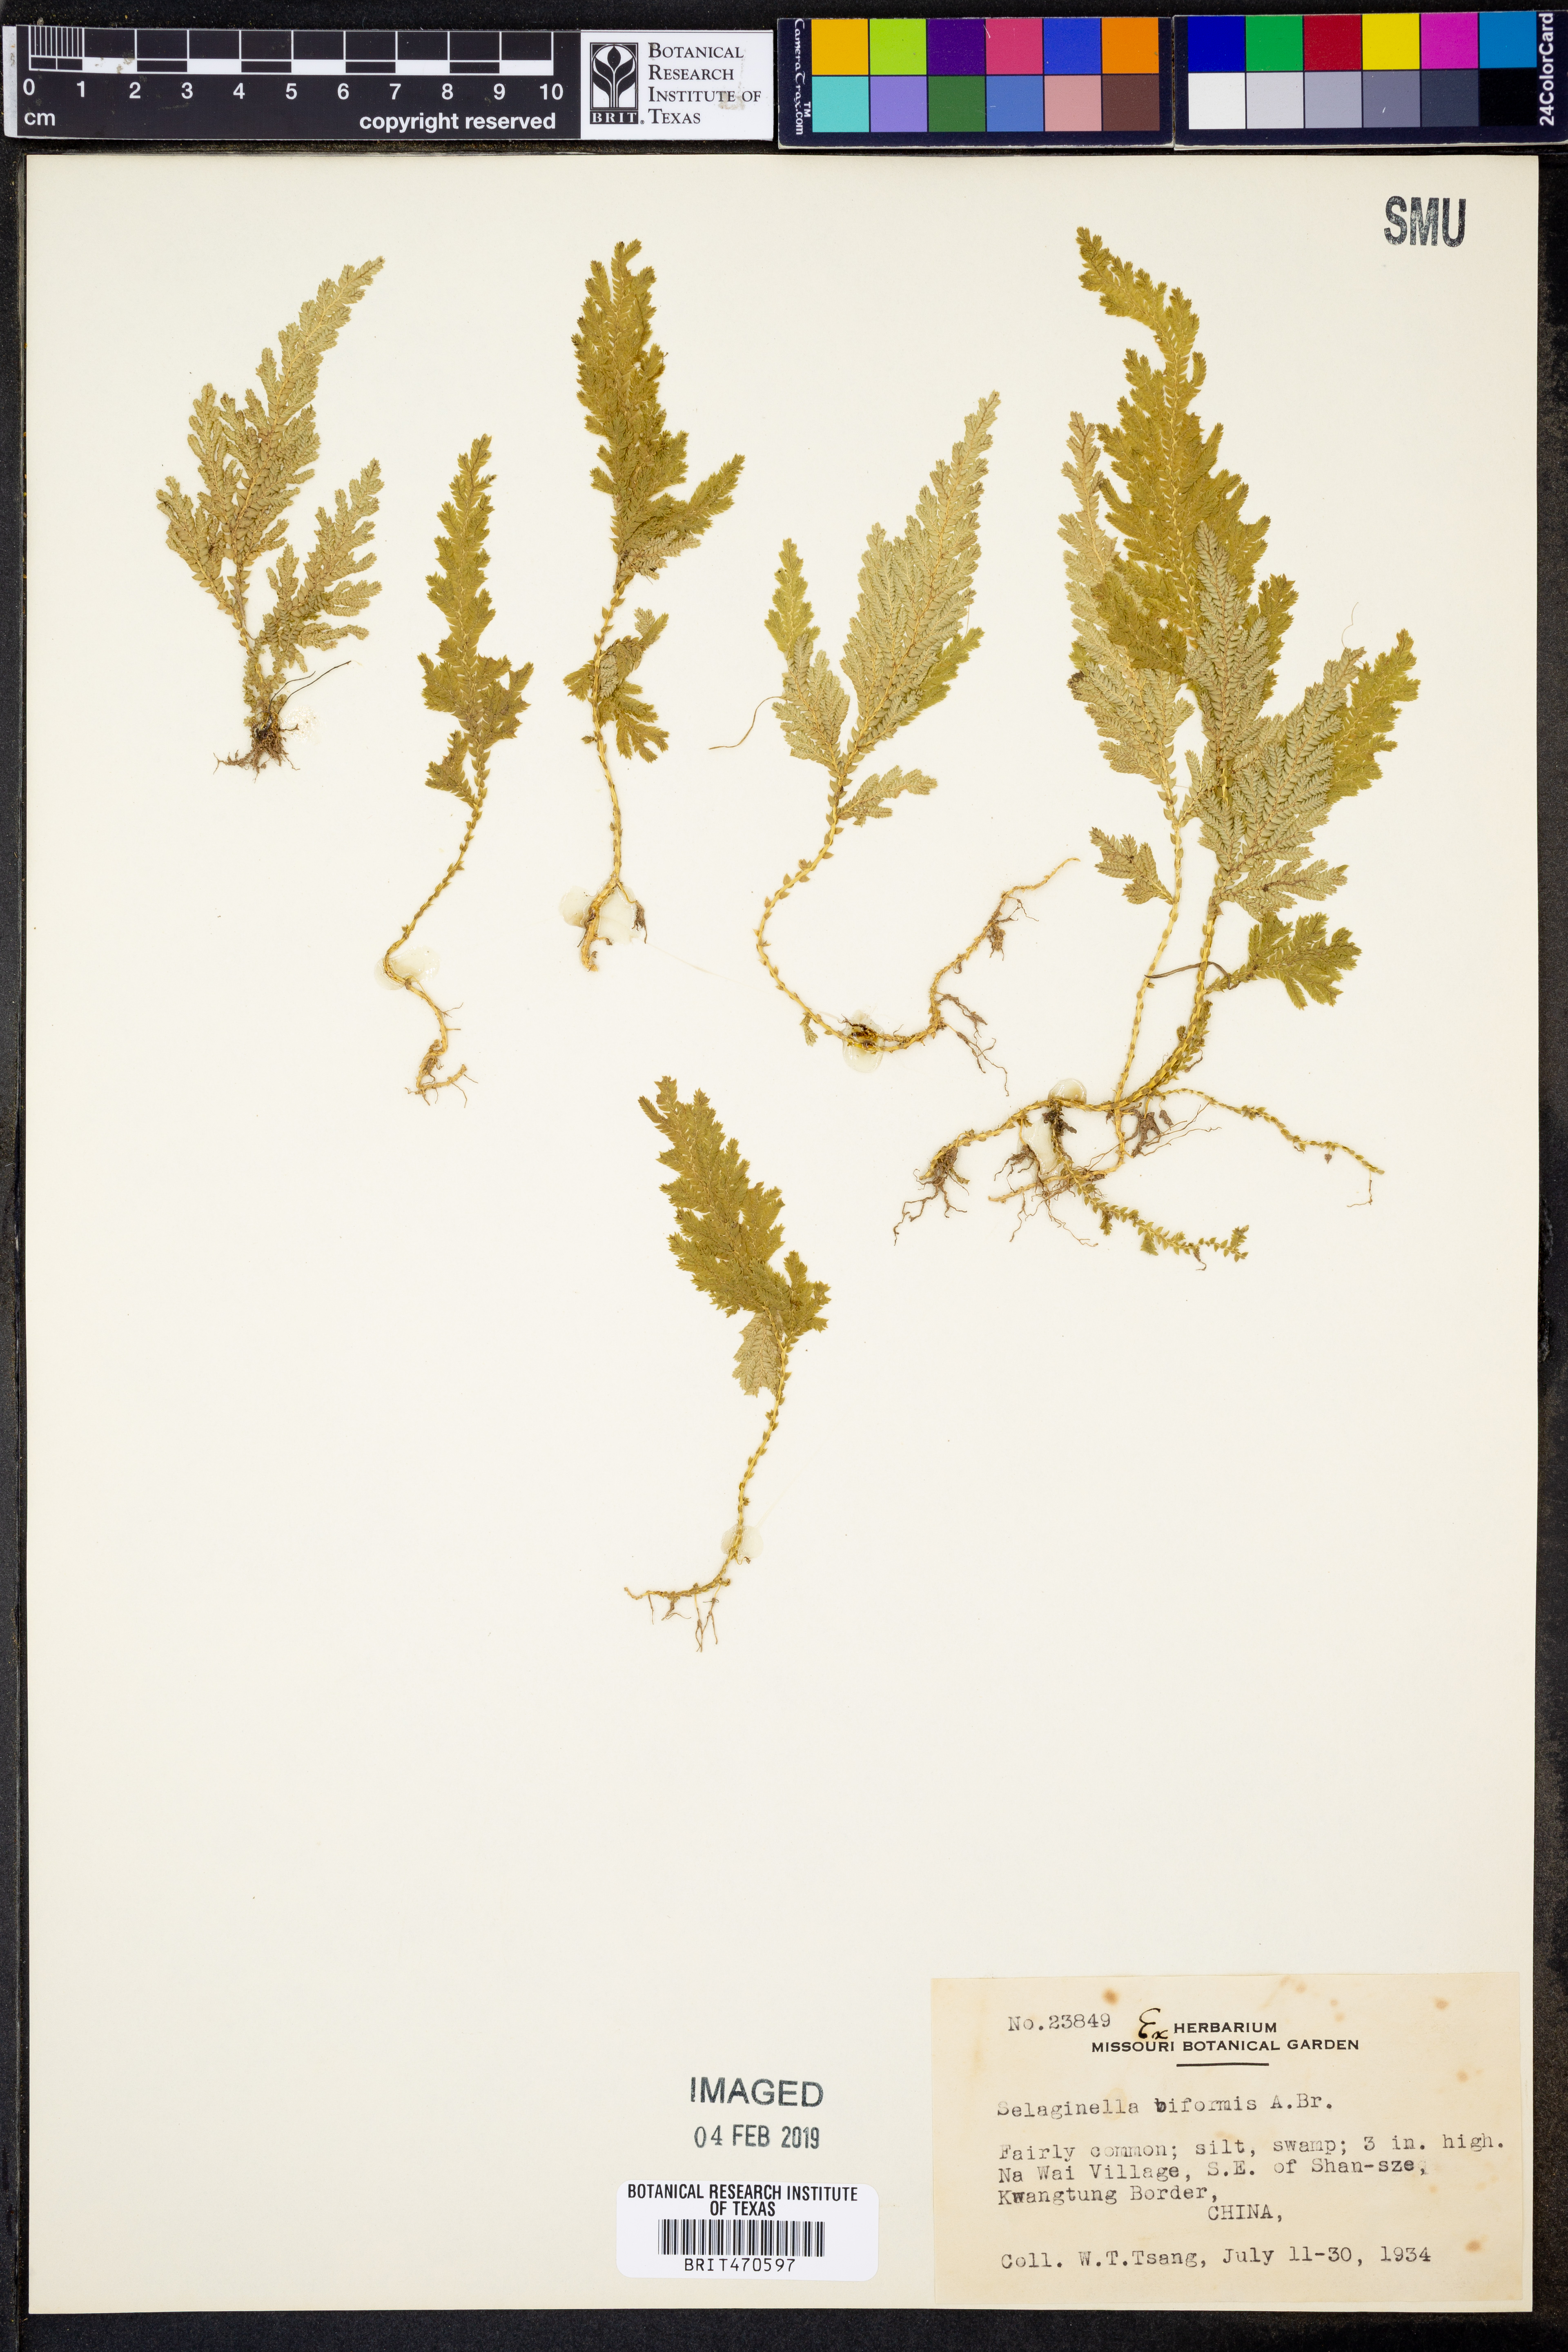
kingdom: Plantae
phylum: Tracheophyta
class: Lycopodiopsida
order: Selaginellales
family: Selaginellaceae
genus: Selaginella
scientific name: Selaginella biformis
